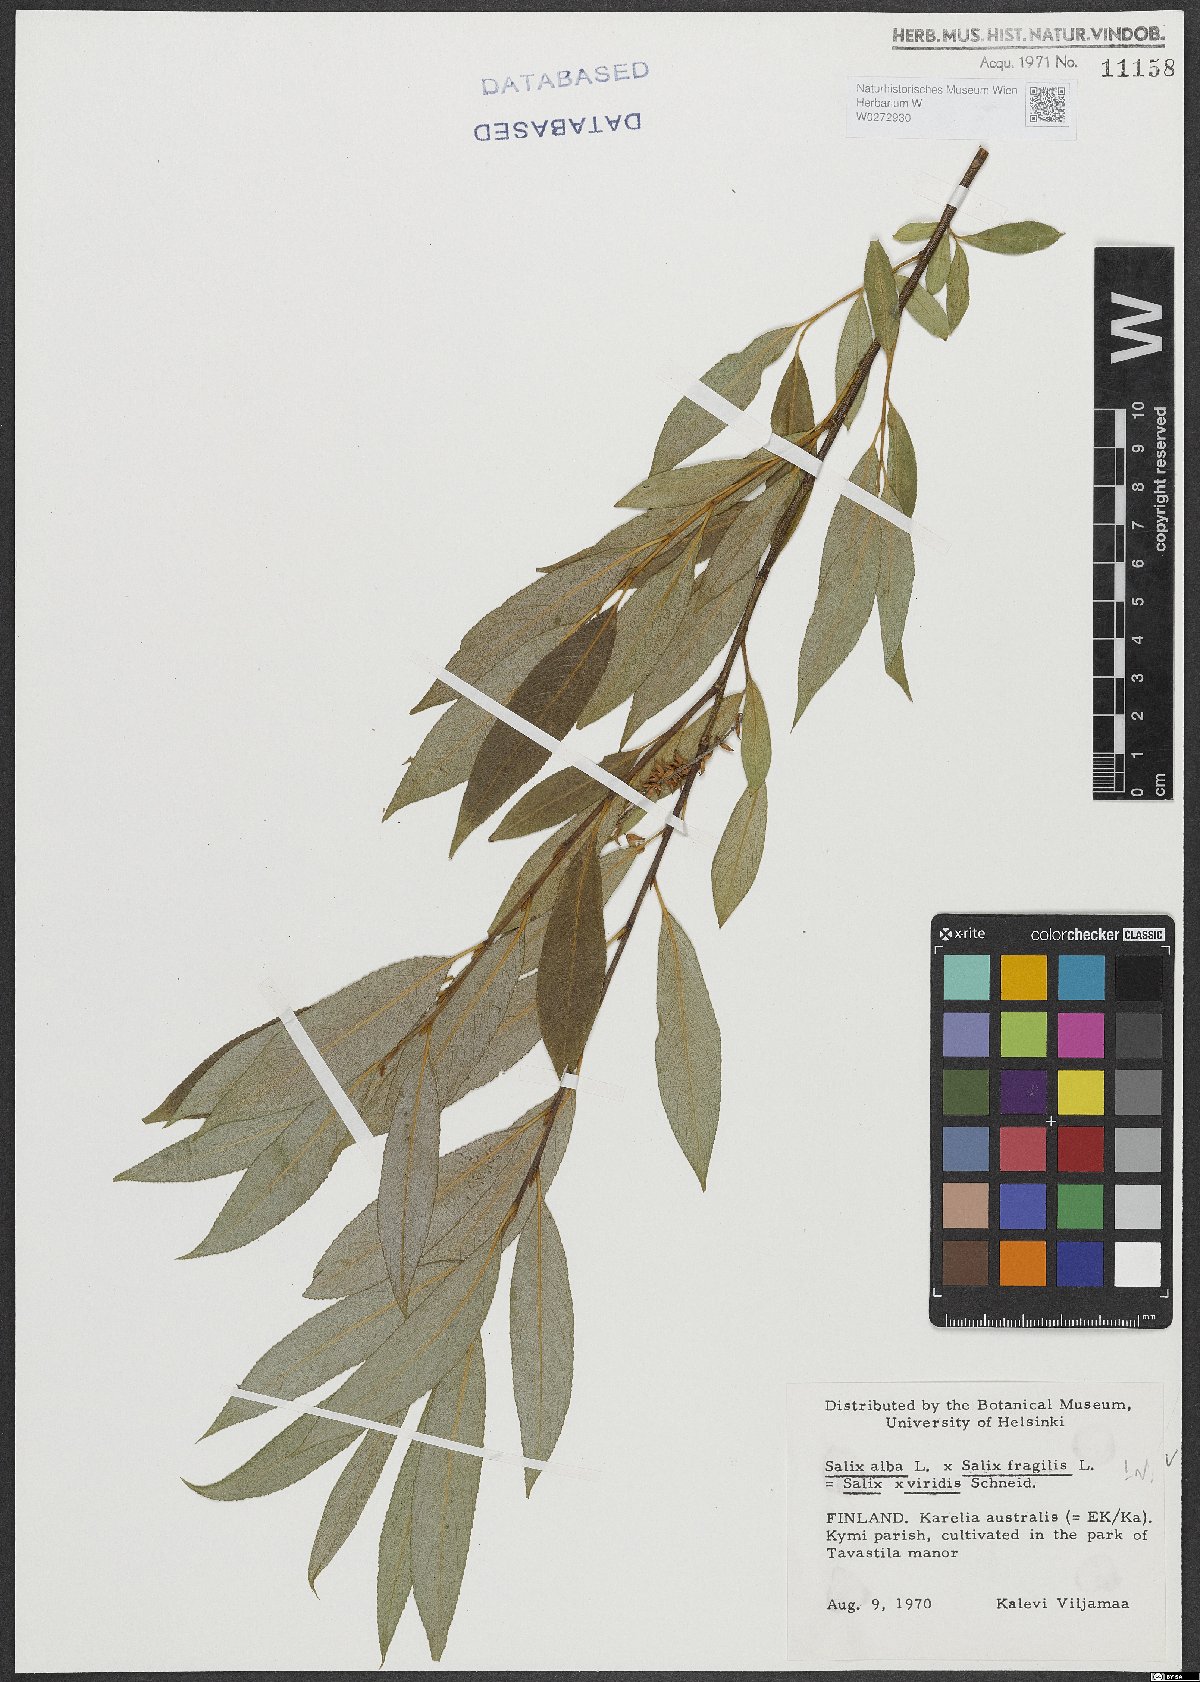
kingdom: Plantae
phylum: Tracheophyta
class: Magnoliopsida
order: Malpighiales
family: Salicaceae
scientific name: Salicaceae
